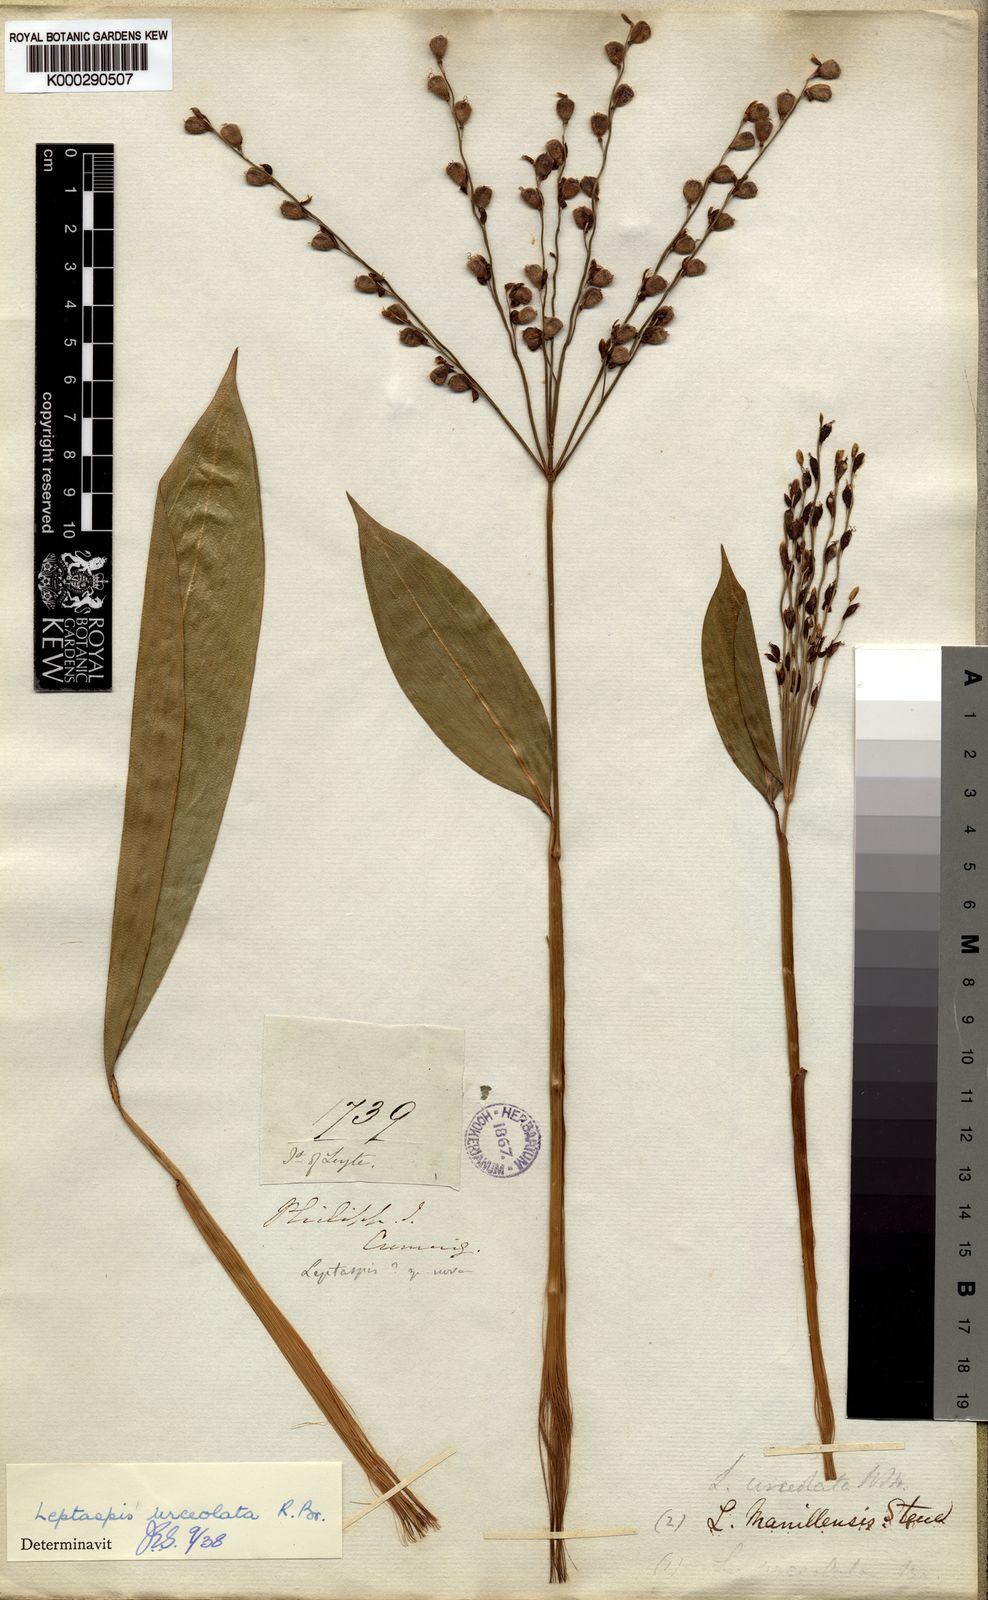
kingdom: Plantae
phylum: Tracheophyta
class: Liliopsida
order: Poales
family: Poaceae
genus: Scrotochloa
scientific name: Scrotochloa urceolata
